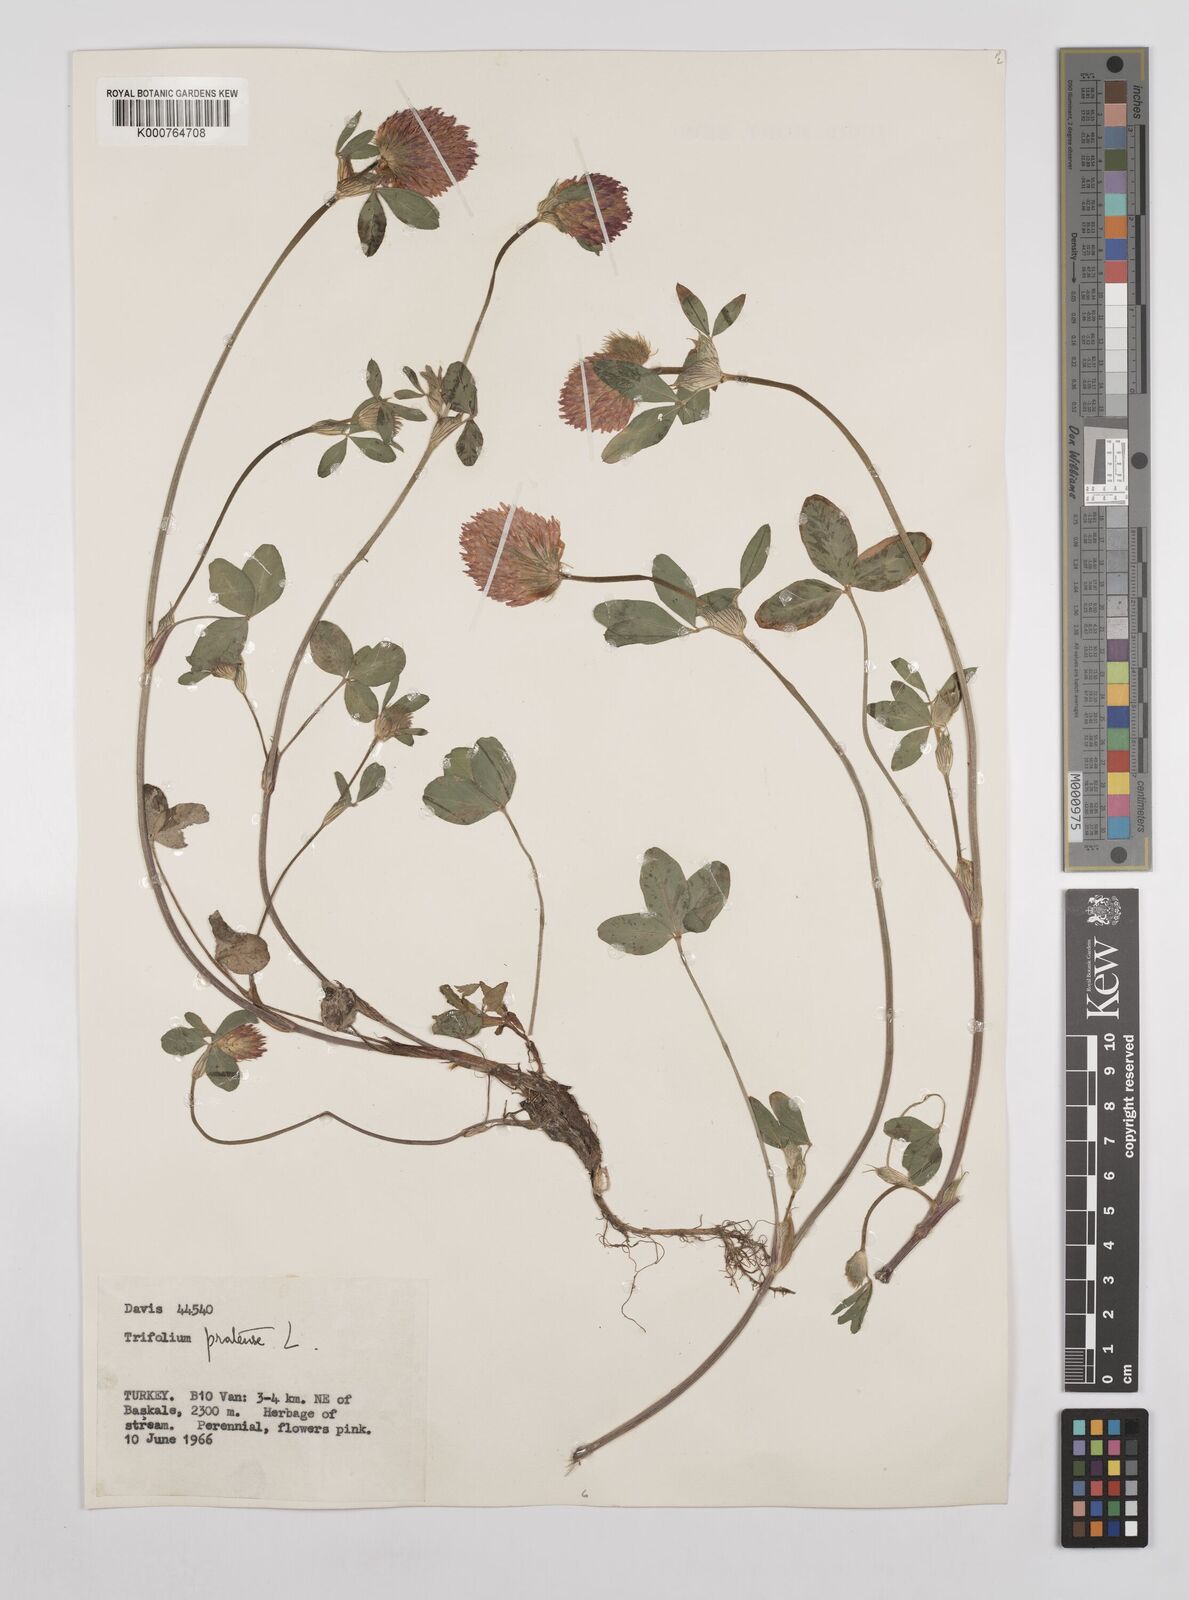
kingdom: Plantae
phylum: Tracheophyta
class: Magnoliopsida
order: Fabales
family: Fabaceae
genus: Trifolium
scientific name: Trifolium pratense
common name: Red clover
